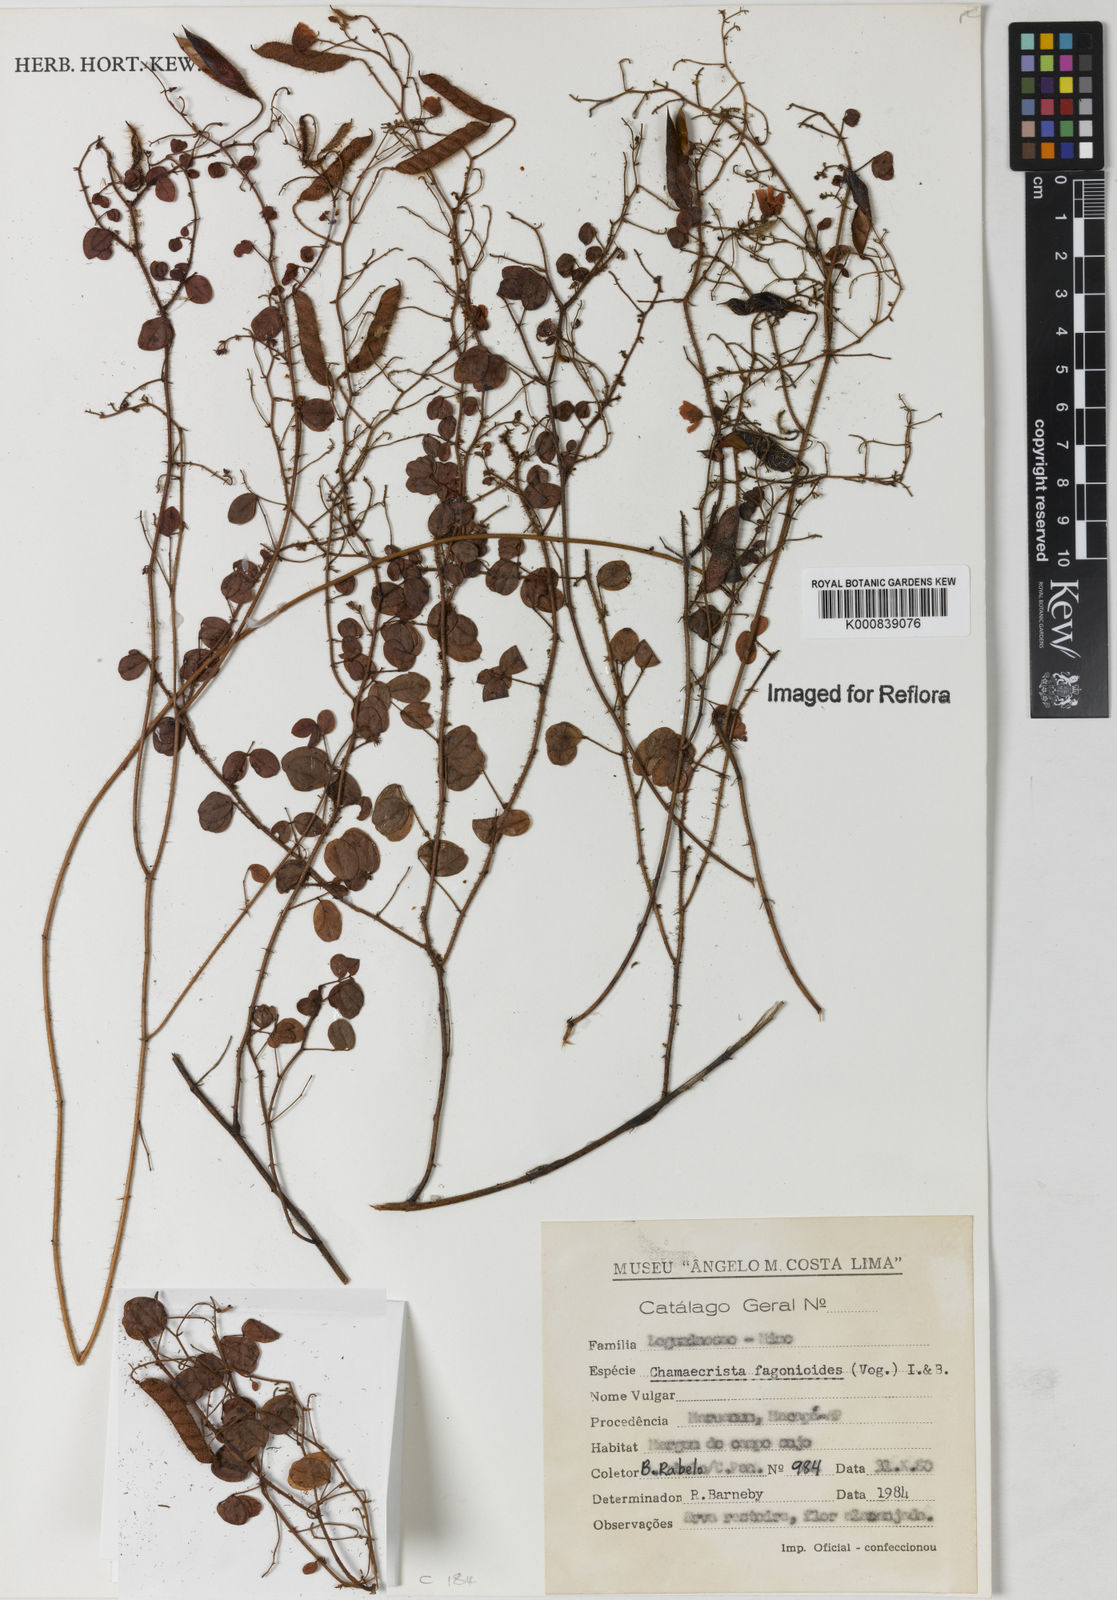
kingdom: Plantae
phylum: Tracheophyta
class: Magnoliopsida
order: Fabales
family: Fabaceae
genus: Chamaecrista
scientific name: Chamaecrista fagonioides
